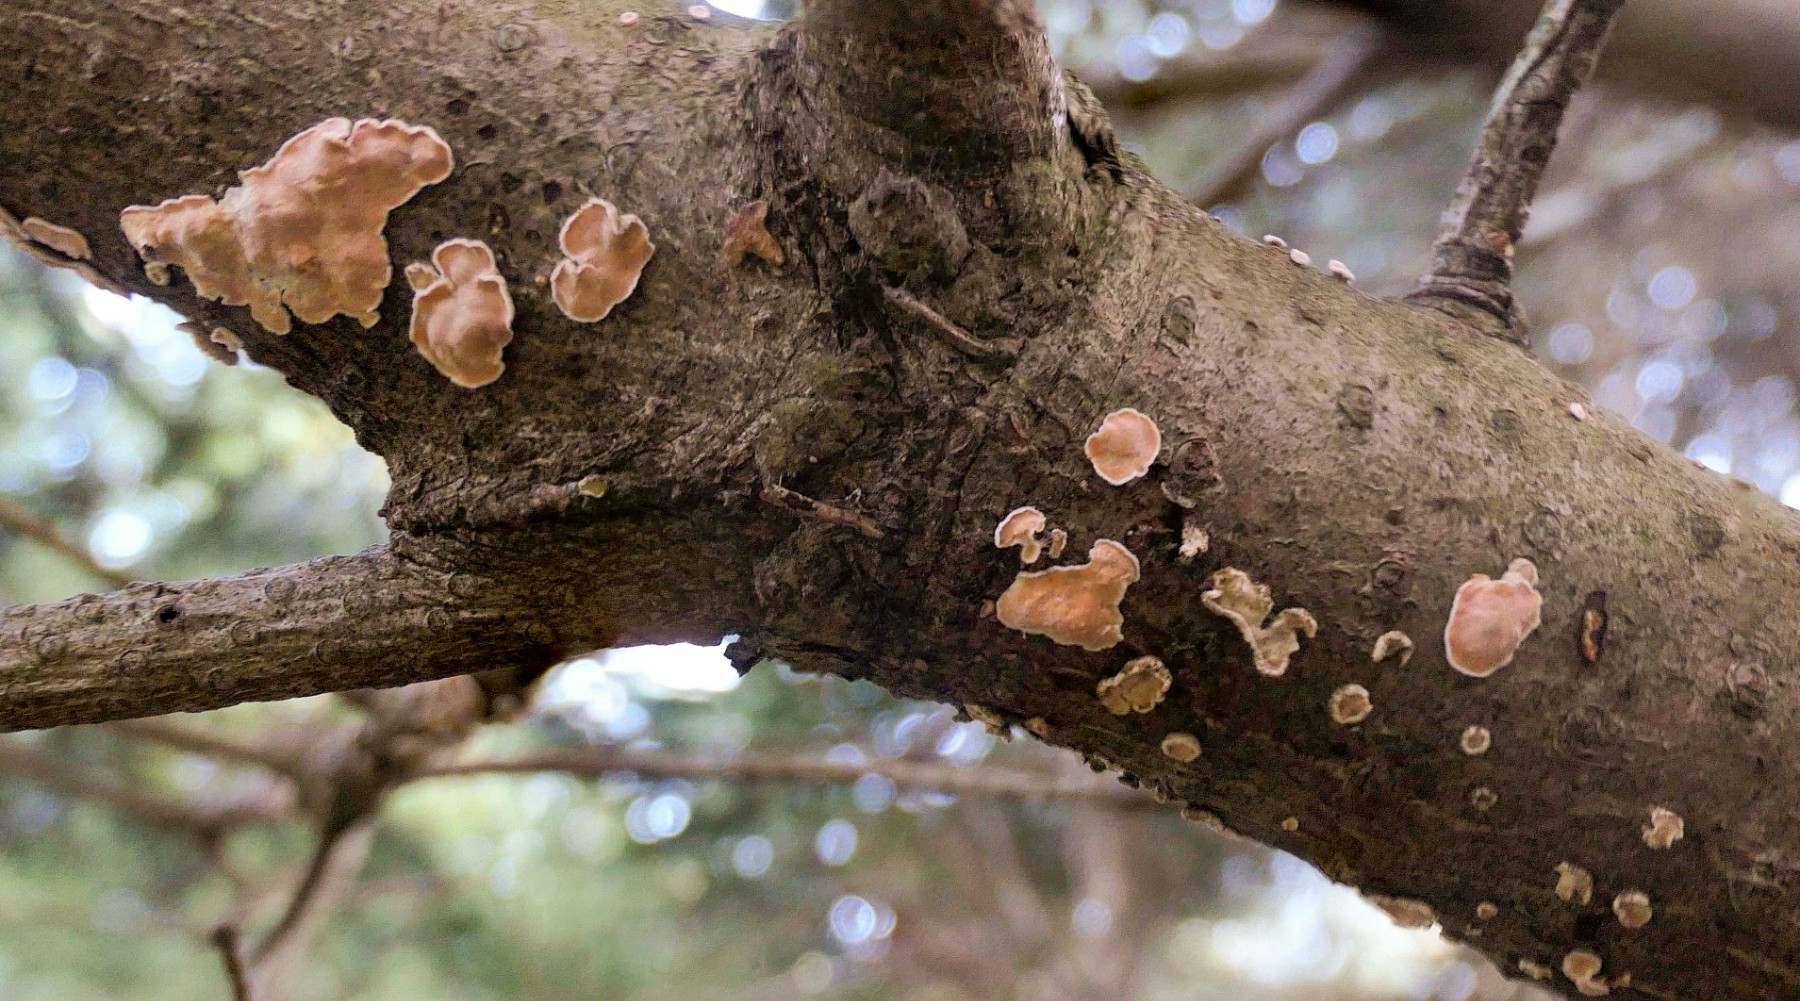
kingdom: Fungi
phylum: Basidiomycota
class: Agaricomycetes
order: Russulales
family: Stereaceae
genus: Aleurodiscus
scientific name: Aleurodiscus amorphus
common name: orange skiveskorpe
